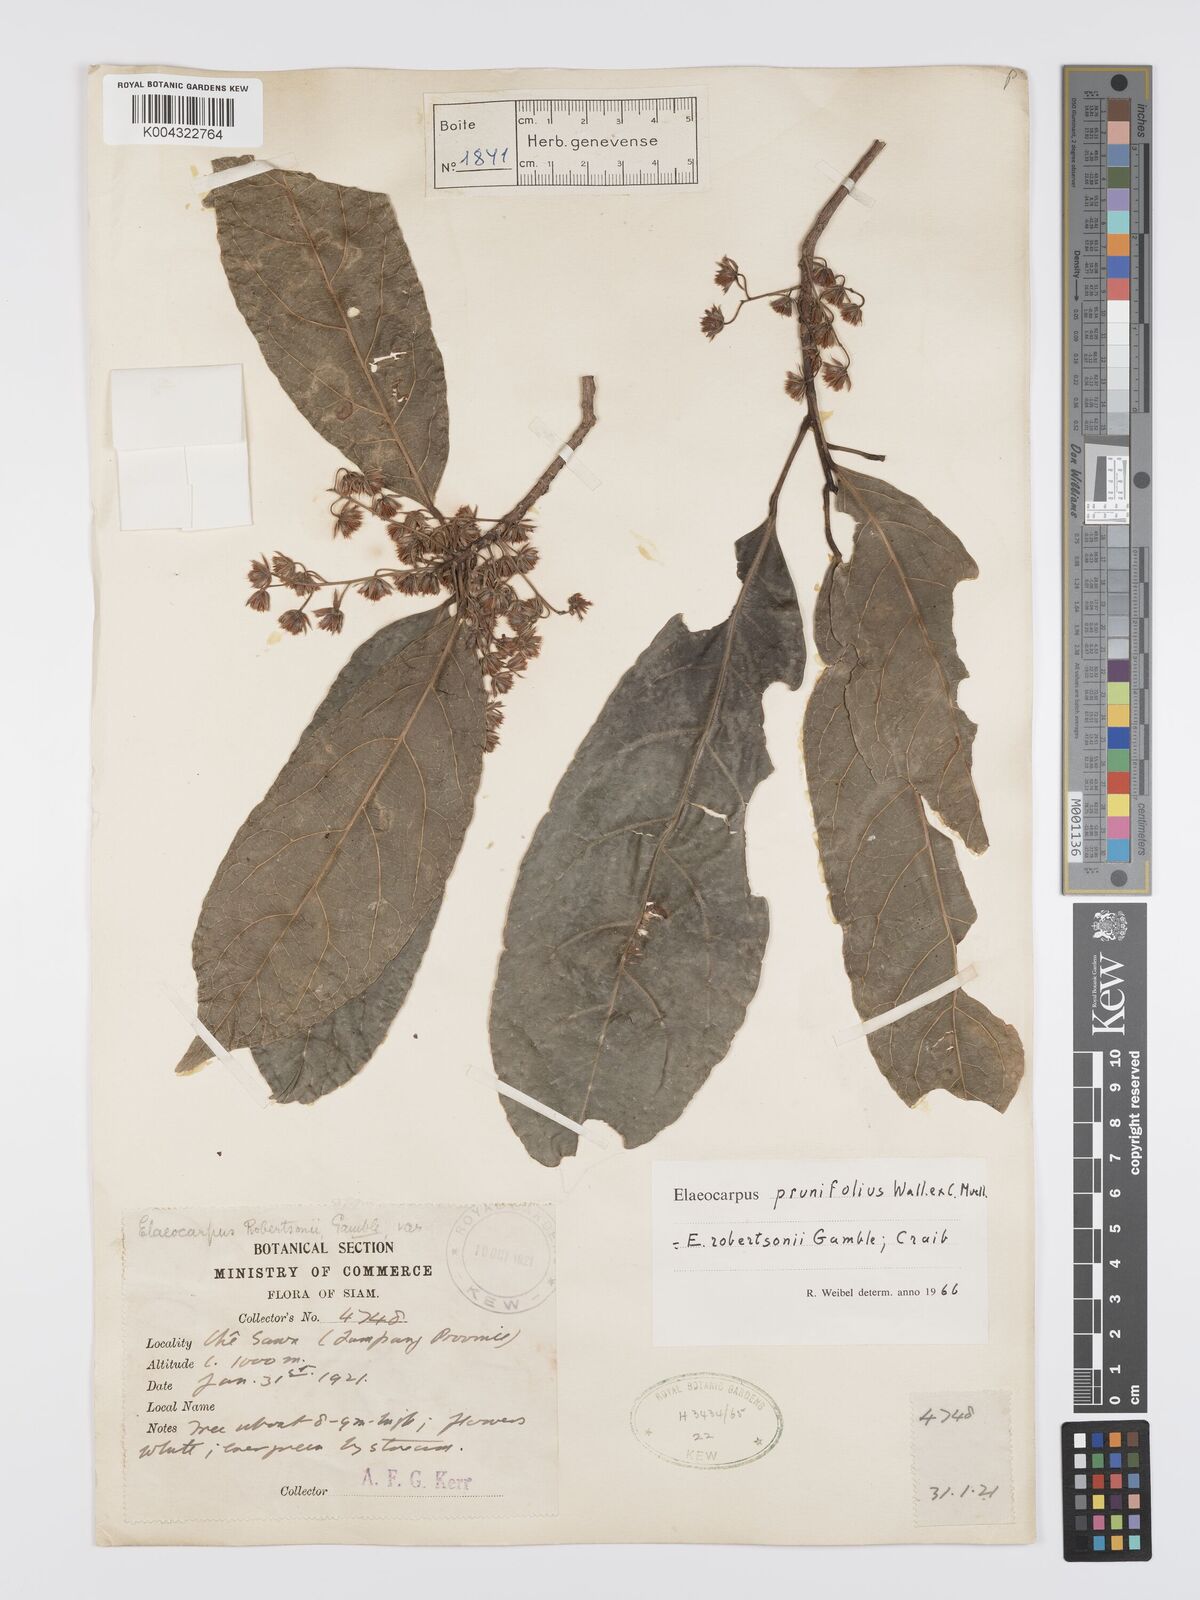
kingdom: Plantae
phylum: Tracheophyta
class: Magnoliopsida
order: Oxalidales
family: Elaeocarpaceae
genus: Elaeocarpus
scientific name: Elaeocarpus
